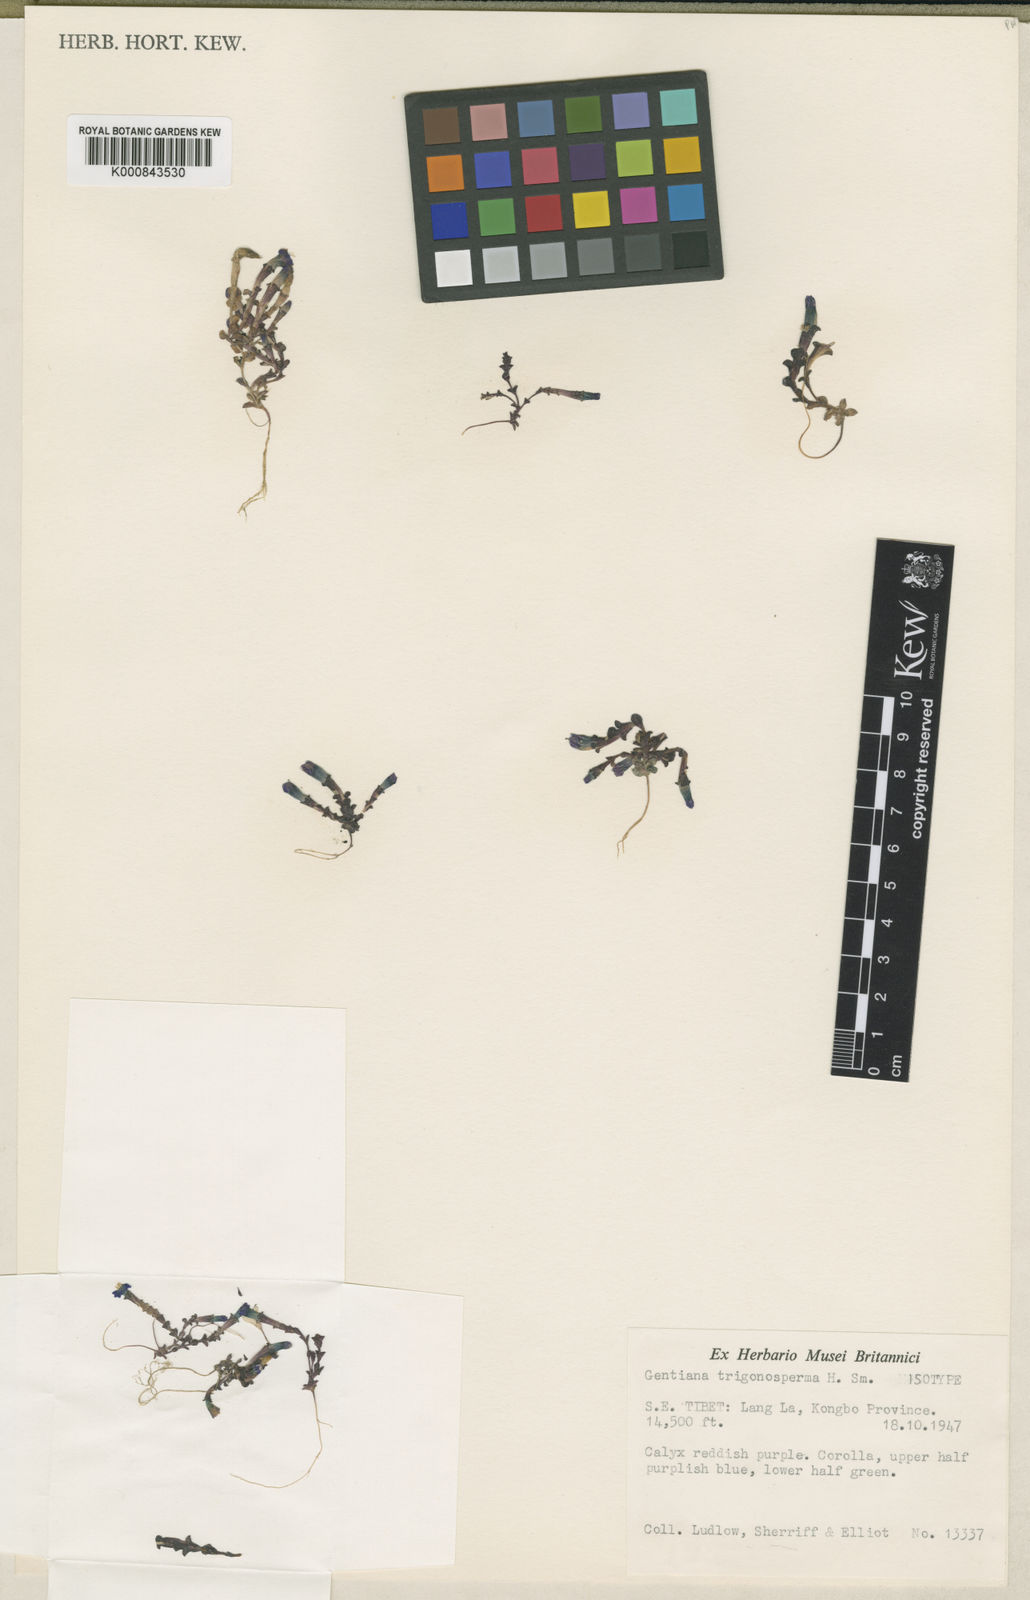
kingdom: Plantae
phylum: Tracheophyta
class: Magnoliopsida
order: Gentianales
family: Gentianaceae
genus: Gentiana
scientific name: Gentiana vernayi
